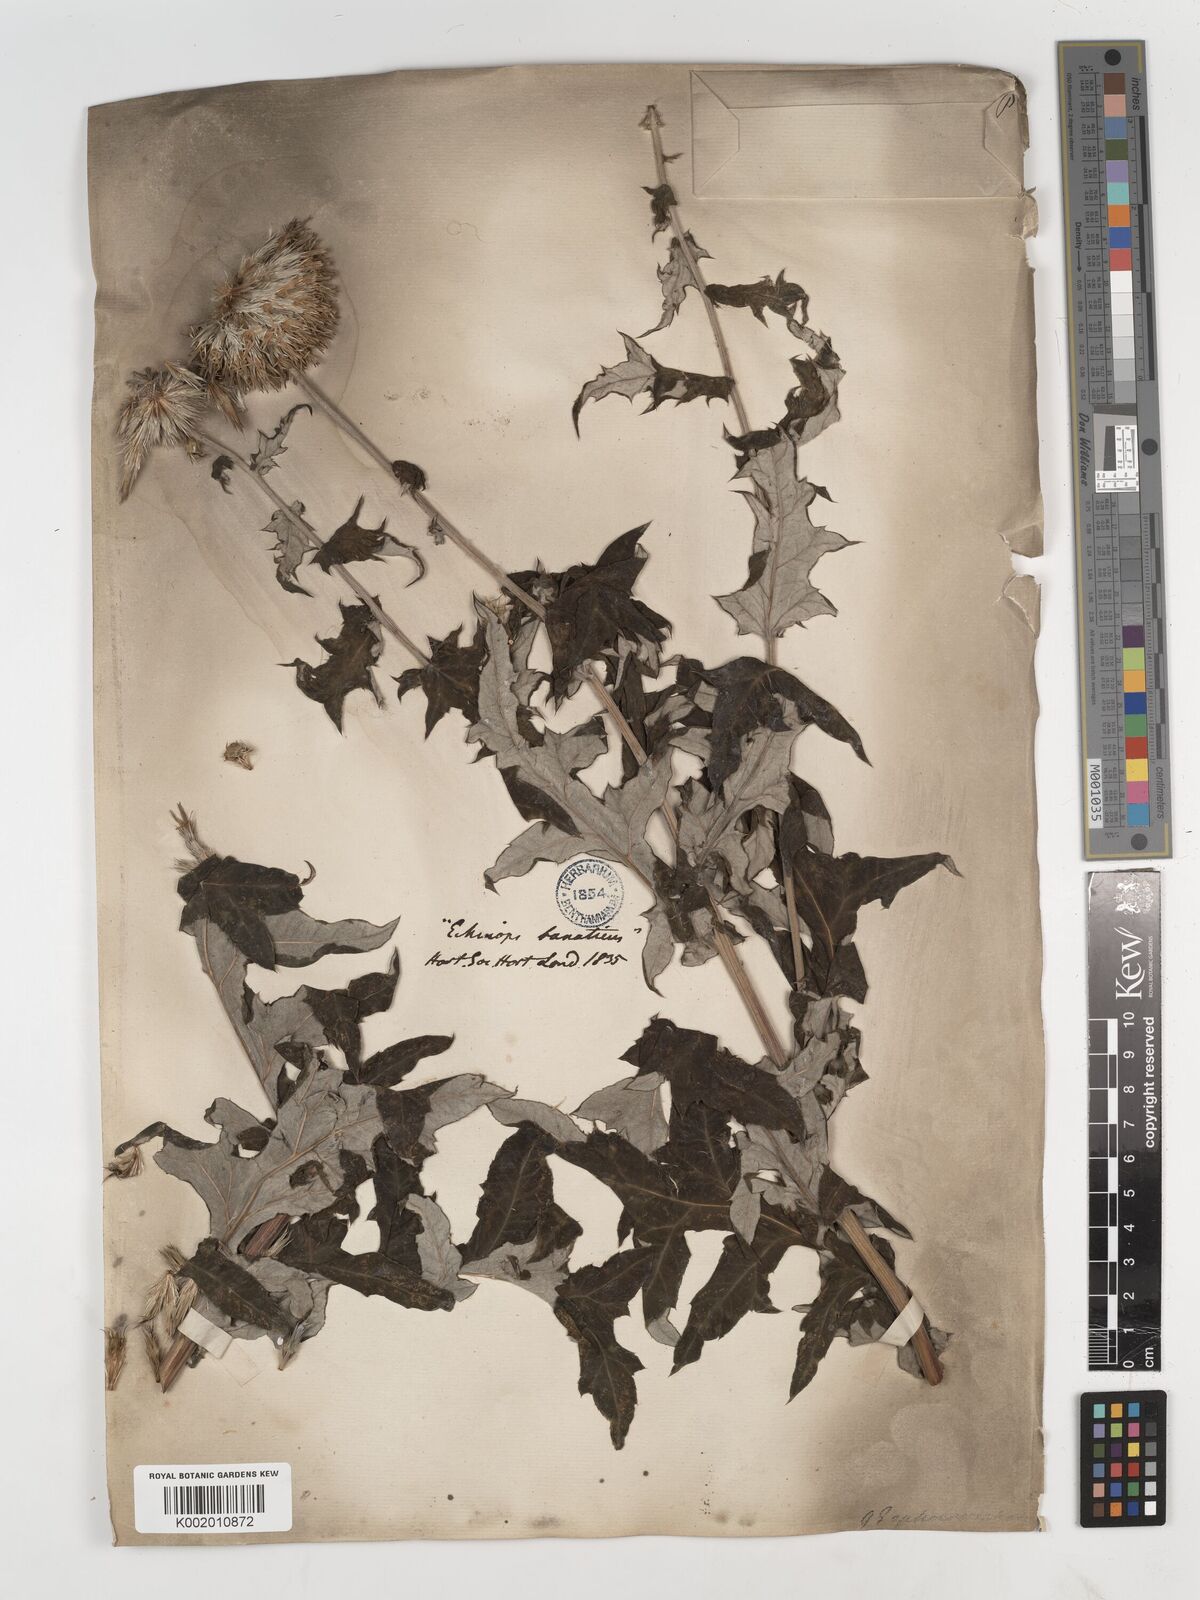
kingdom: Plantae
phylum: Tracheophyta
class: Magnoliopsida
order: Asterales
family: Asteraceae
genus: Echinops
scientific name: Echinops bannaticus
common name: Blue globe-thistle
